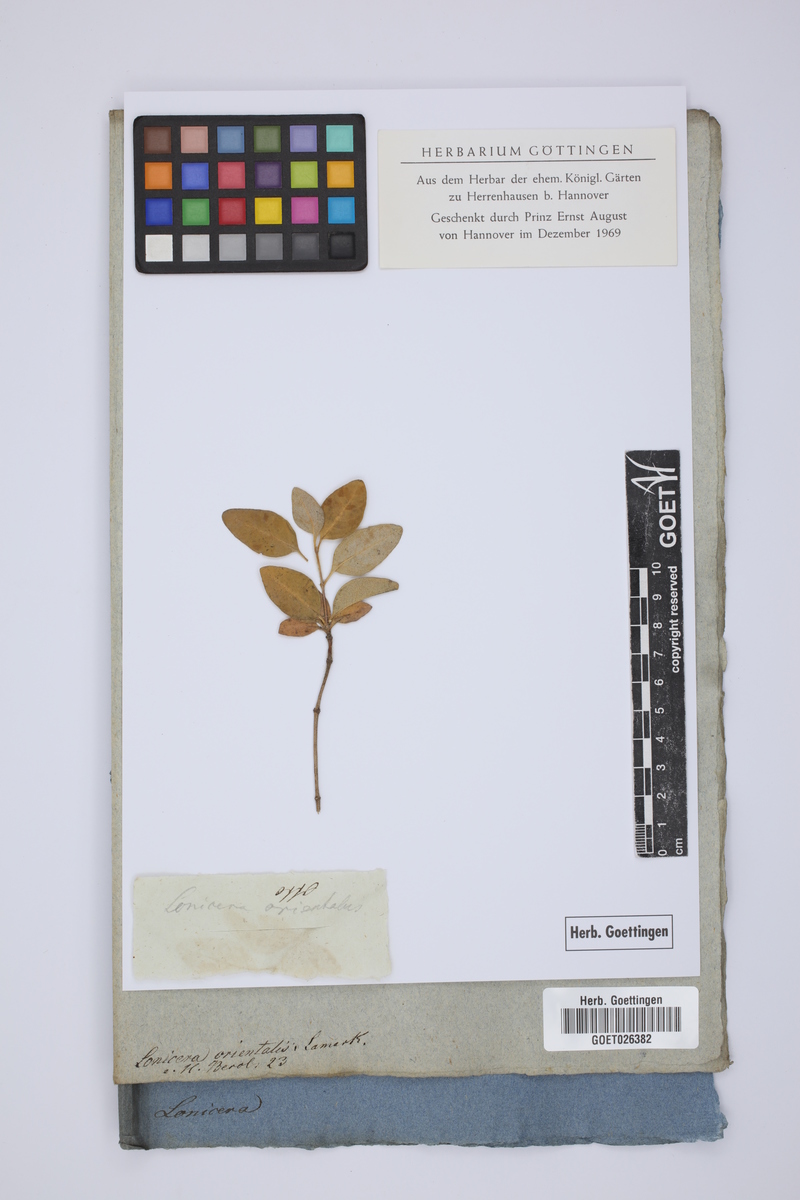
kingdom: Plantae
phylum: Tracheophyta
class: Magnoliopsida
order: Dipsacales
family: Caprifoliaceae
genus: Lonicera
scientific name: Lonicera caucasica
